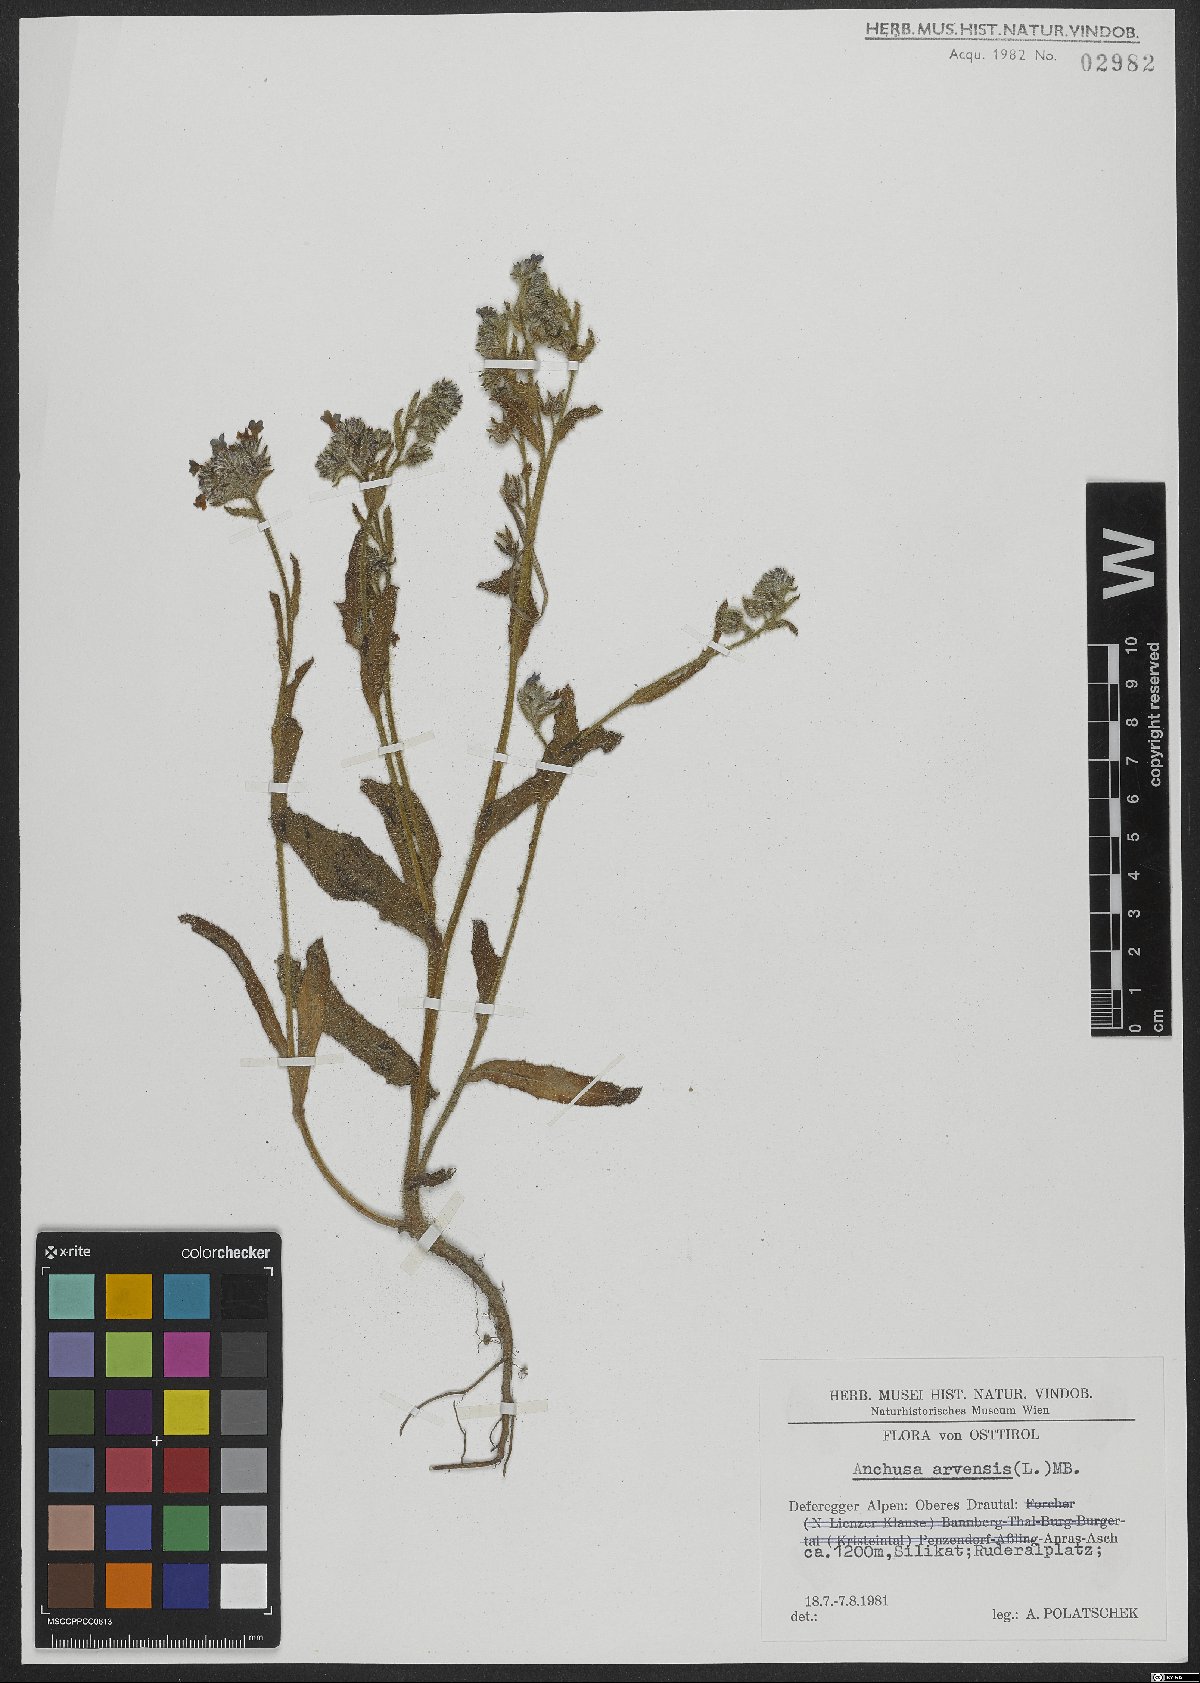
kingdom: Plantae
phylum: Tracheophyta
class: Magnoliopsida
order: Boraginales
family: Boraginaceae
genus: Lycopsis
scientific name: Lycopsis arvensis
